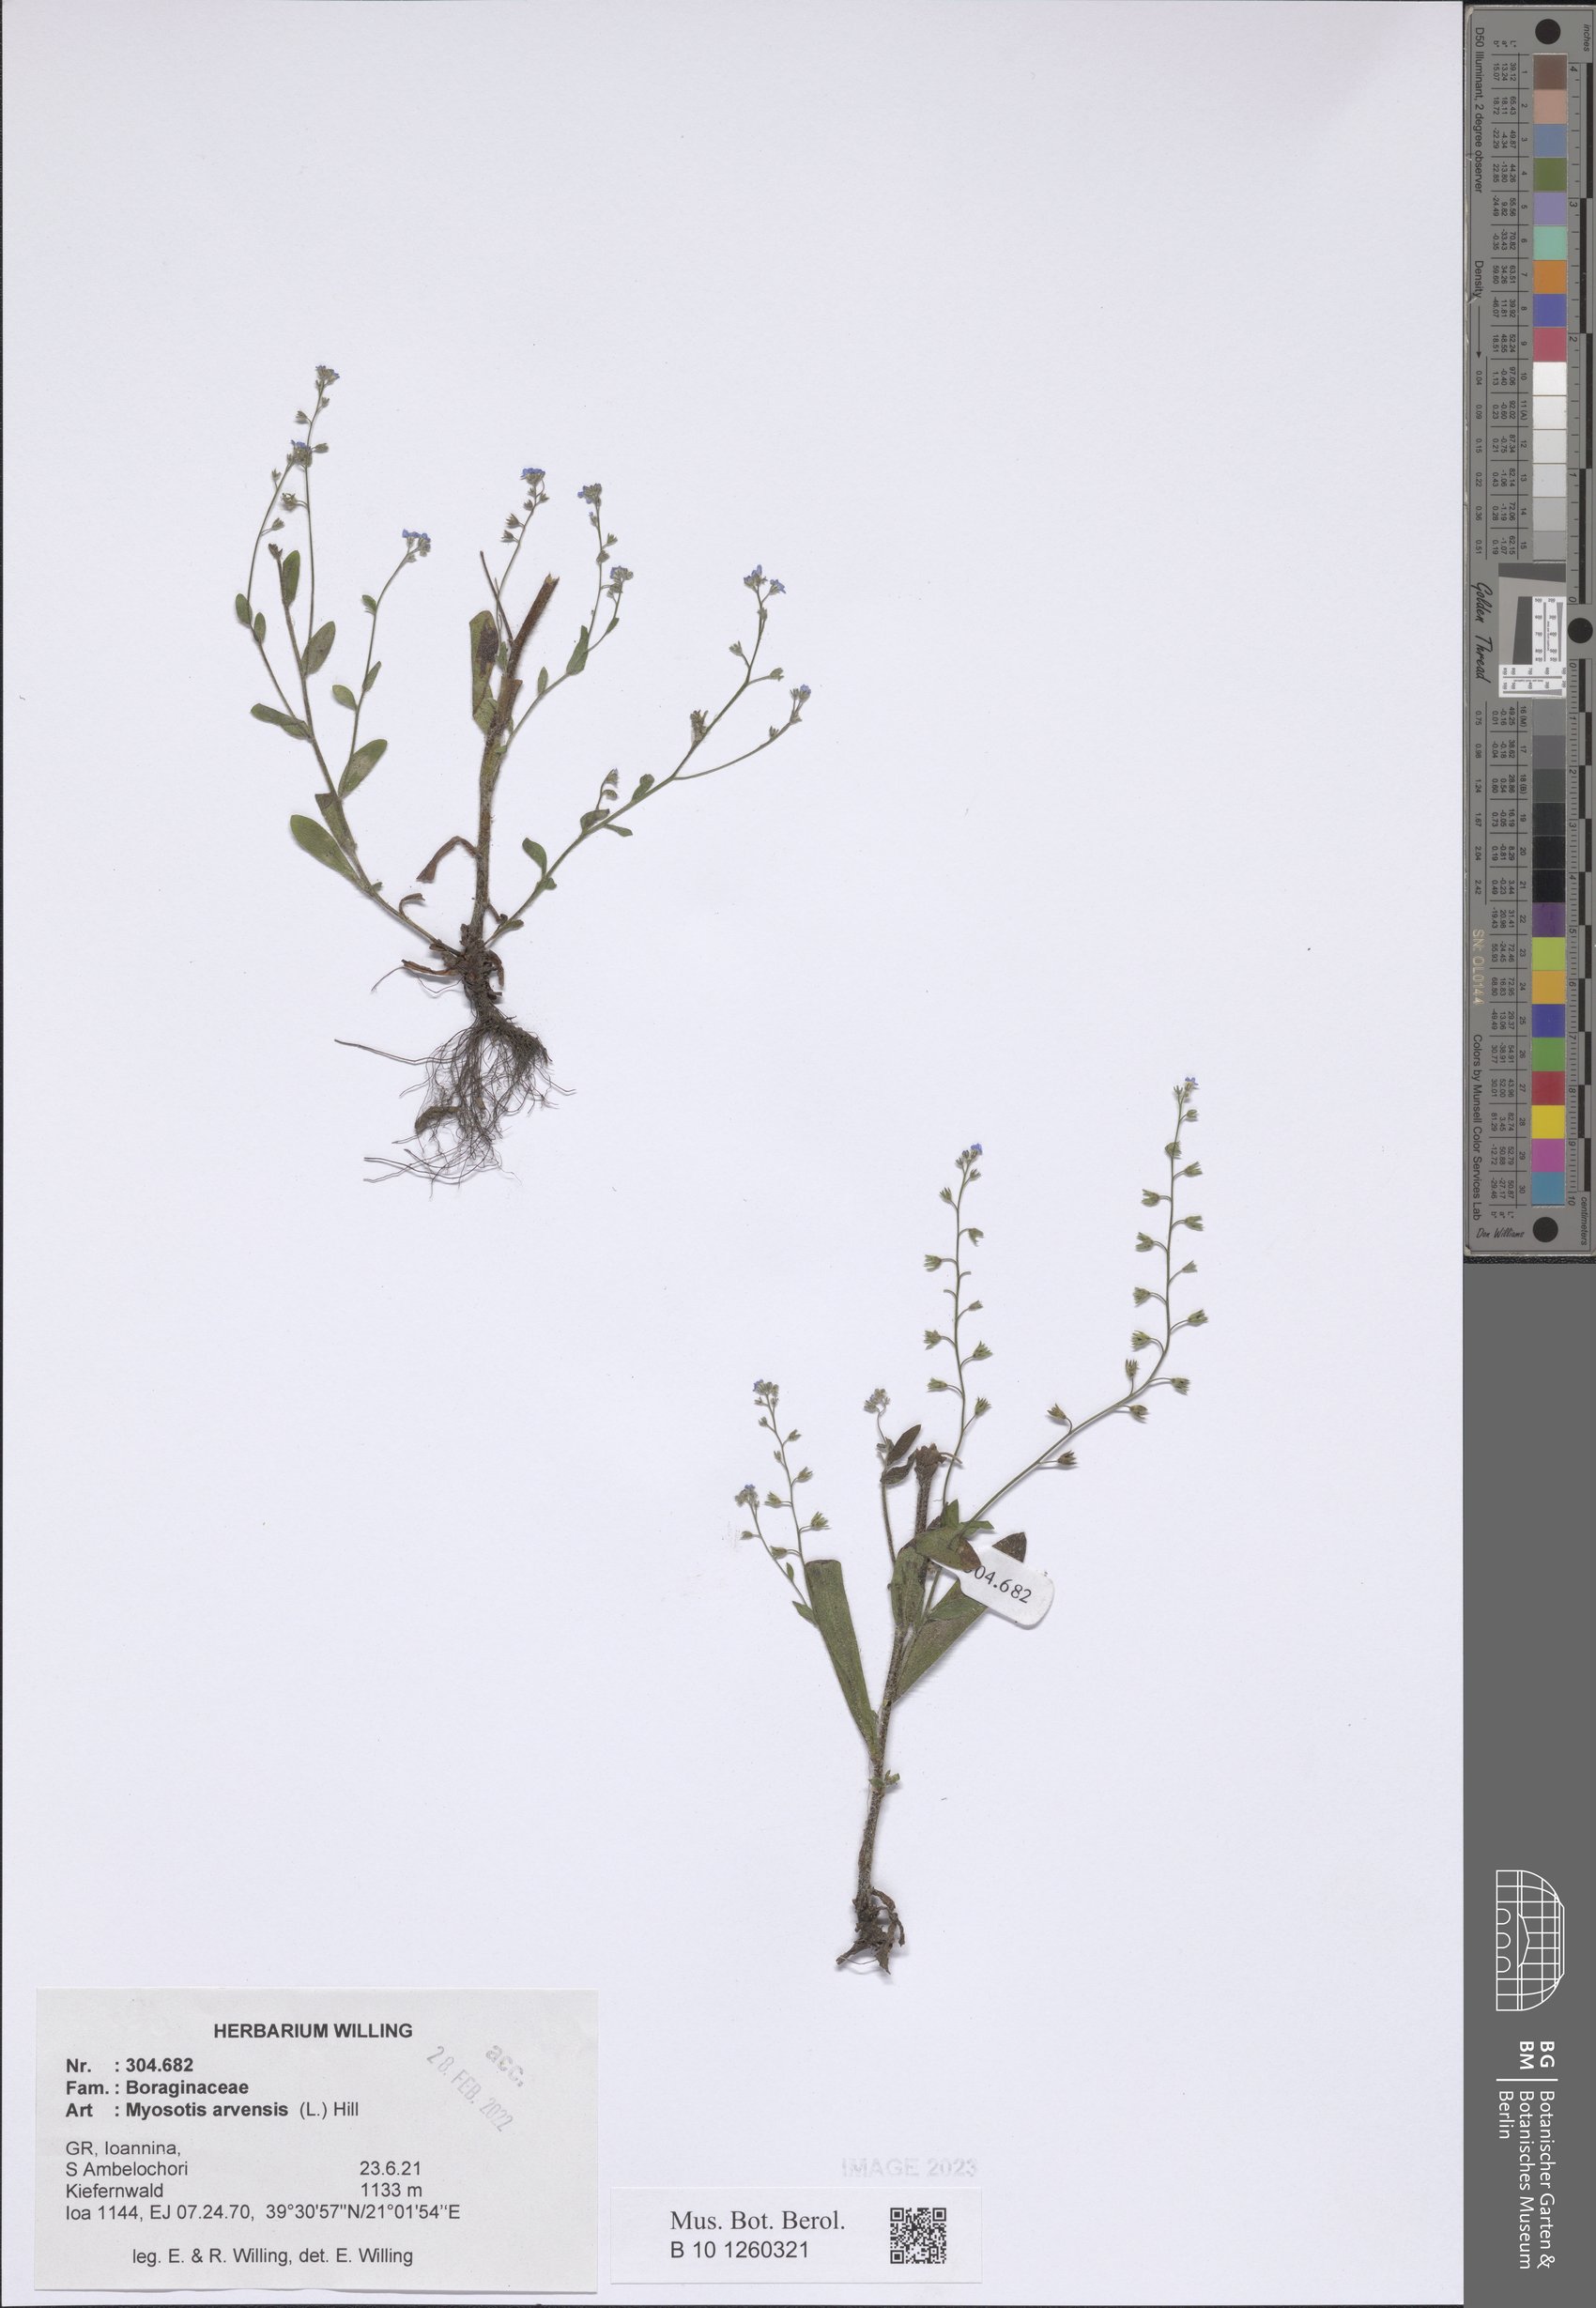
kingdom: Plantae
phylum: Tracheophyta
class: Magnoliopsida
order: Boraginales
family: Boraginaceae
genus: Myosotis
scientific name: Myosotis arvensis
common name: Field forget-me-not
